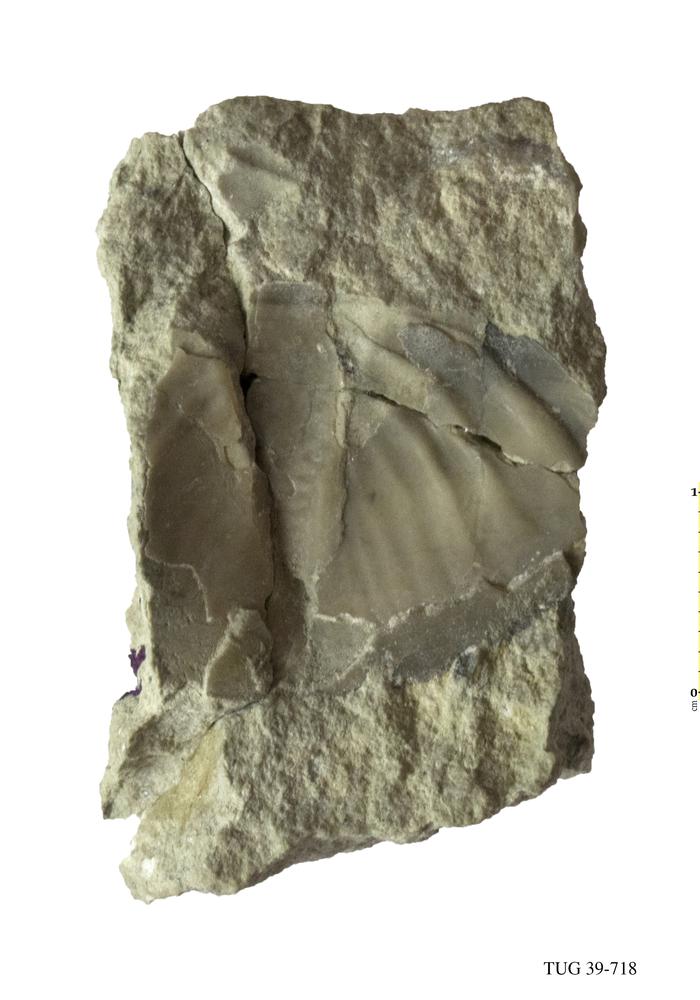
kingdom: Animalia
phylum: Arthropoda
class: Trilobita
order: Asaphida
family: Asaphidae
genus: Pseudobasilicus
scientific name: Pseudobasilicus
